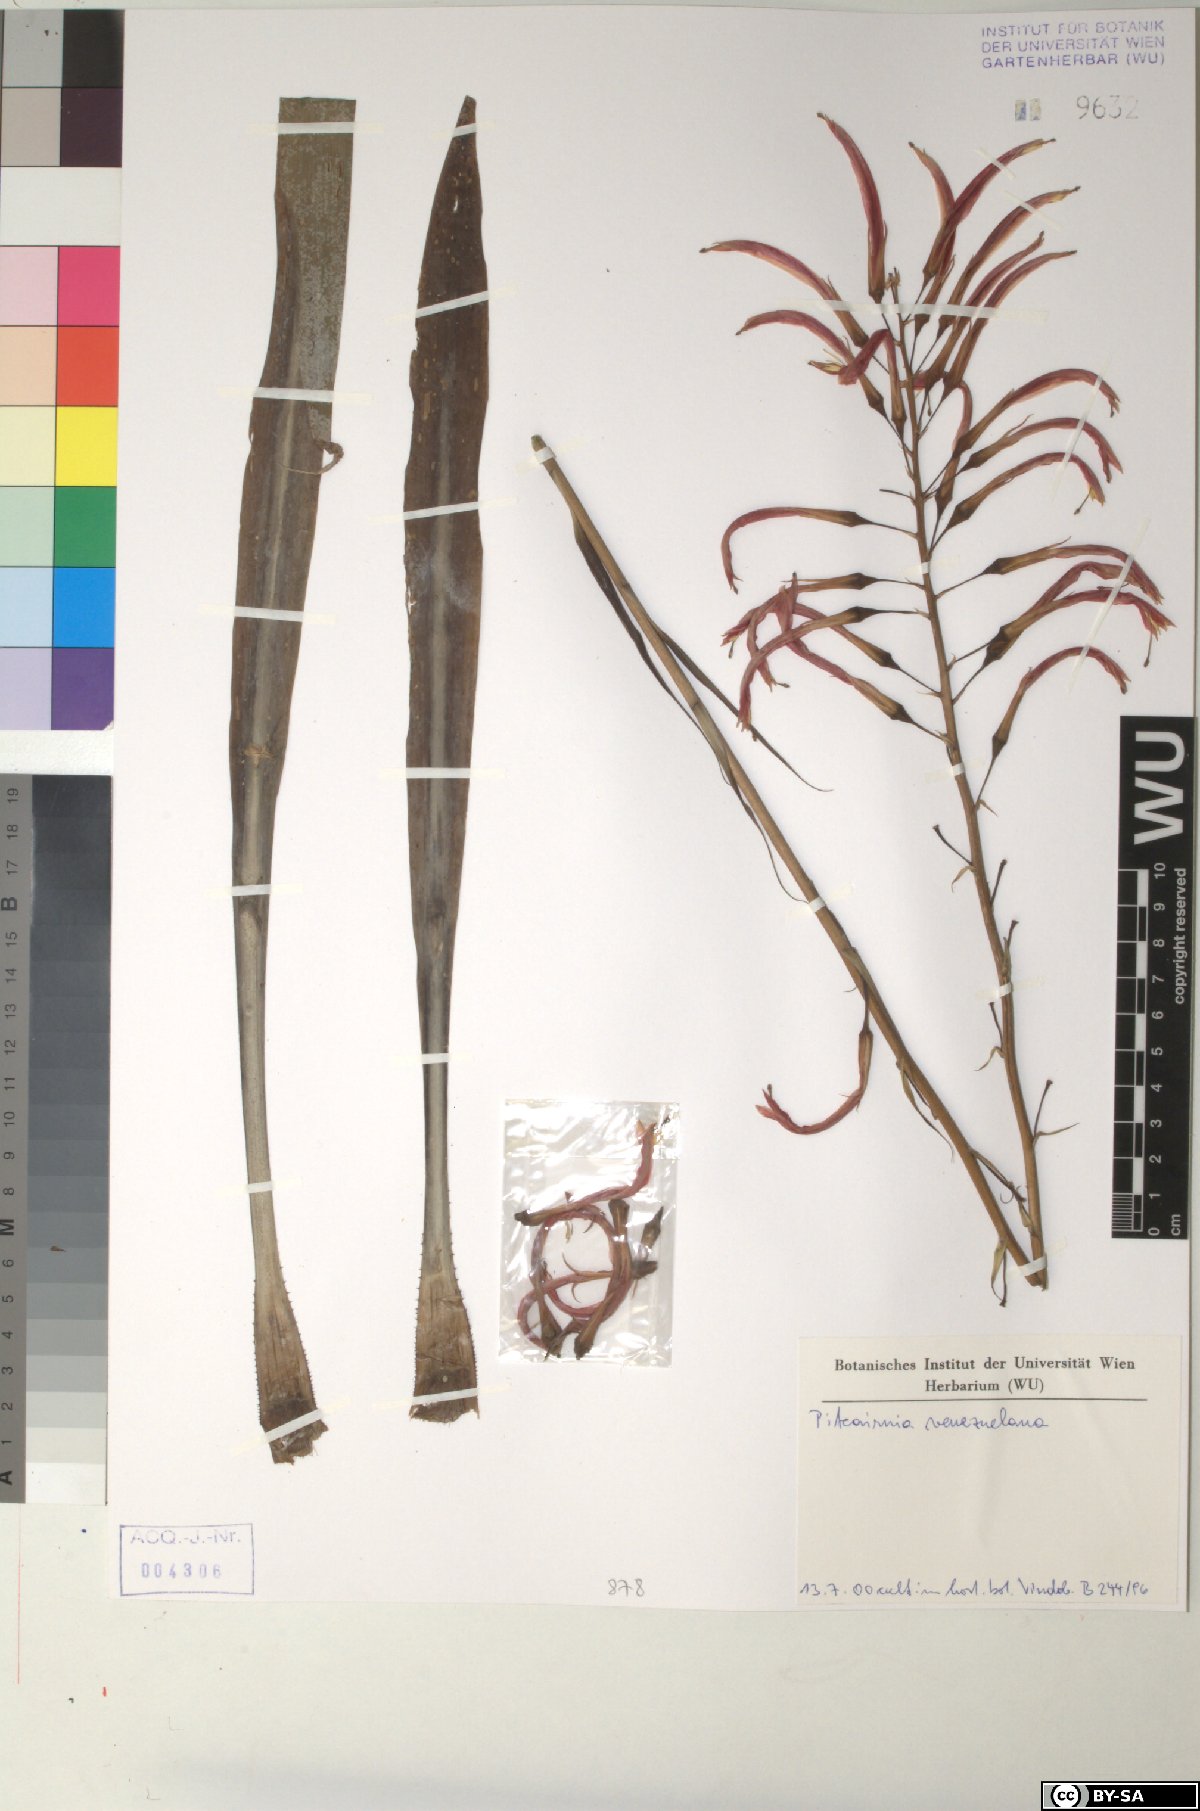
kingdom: Plantae
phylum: Tracheophyta
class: Liliopsida
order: Poales
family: Bromeliaceae
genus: Pitcairnia
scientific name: Pitcairnia venezuelana
